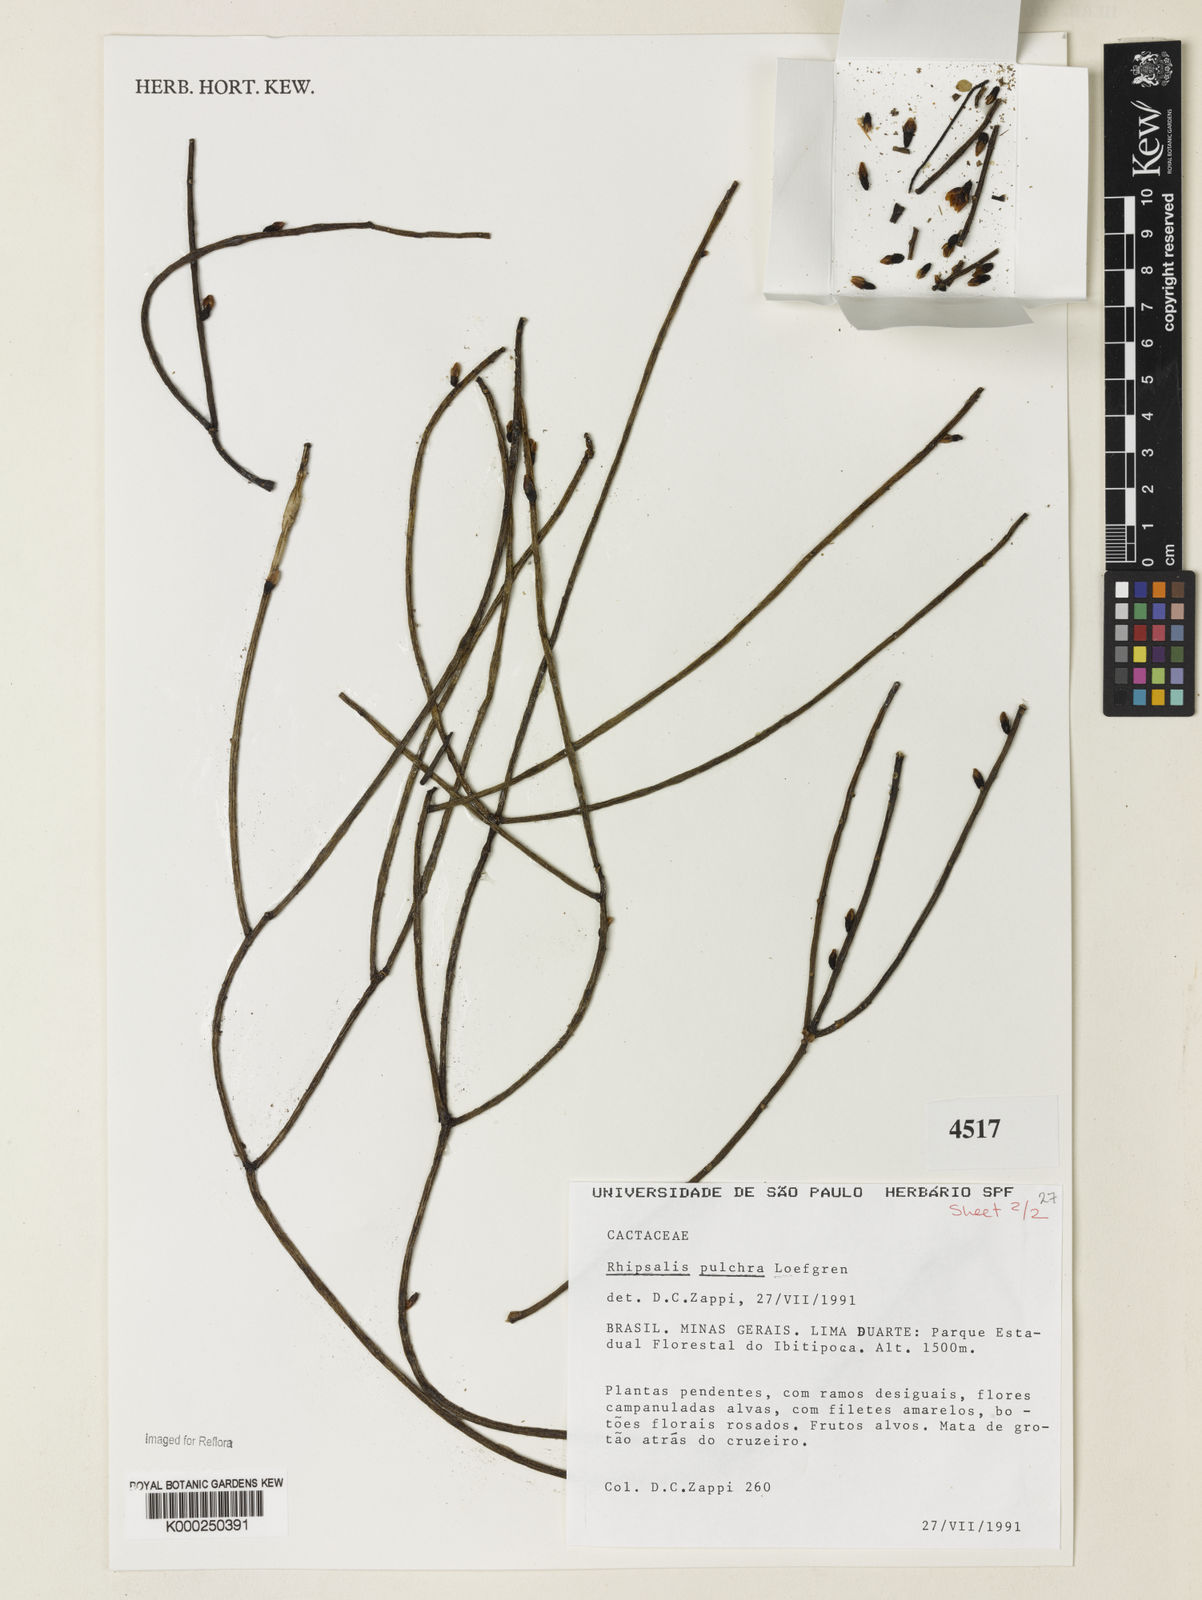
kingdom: Plantae
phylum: Tracheophyta
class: Magnoliopsida
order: Caryophyllales
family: Cactaceae
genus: Rhipsalis
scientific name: Rhipsalis
